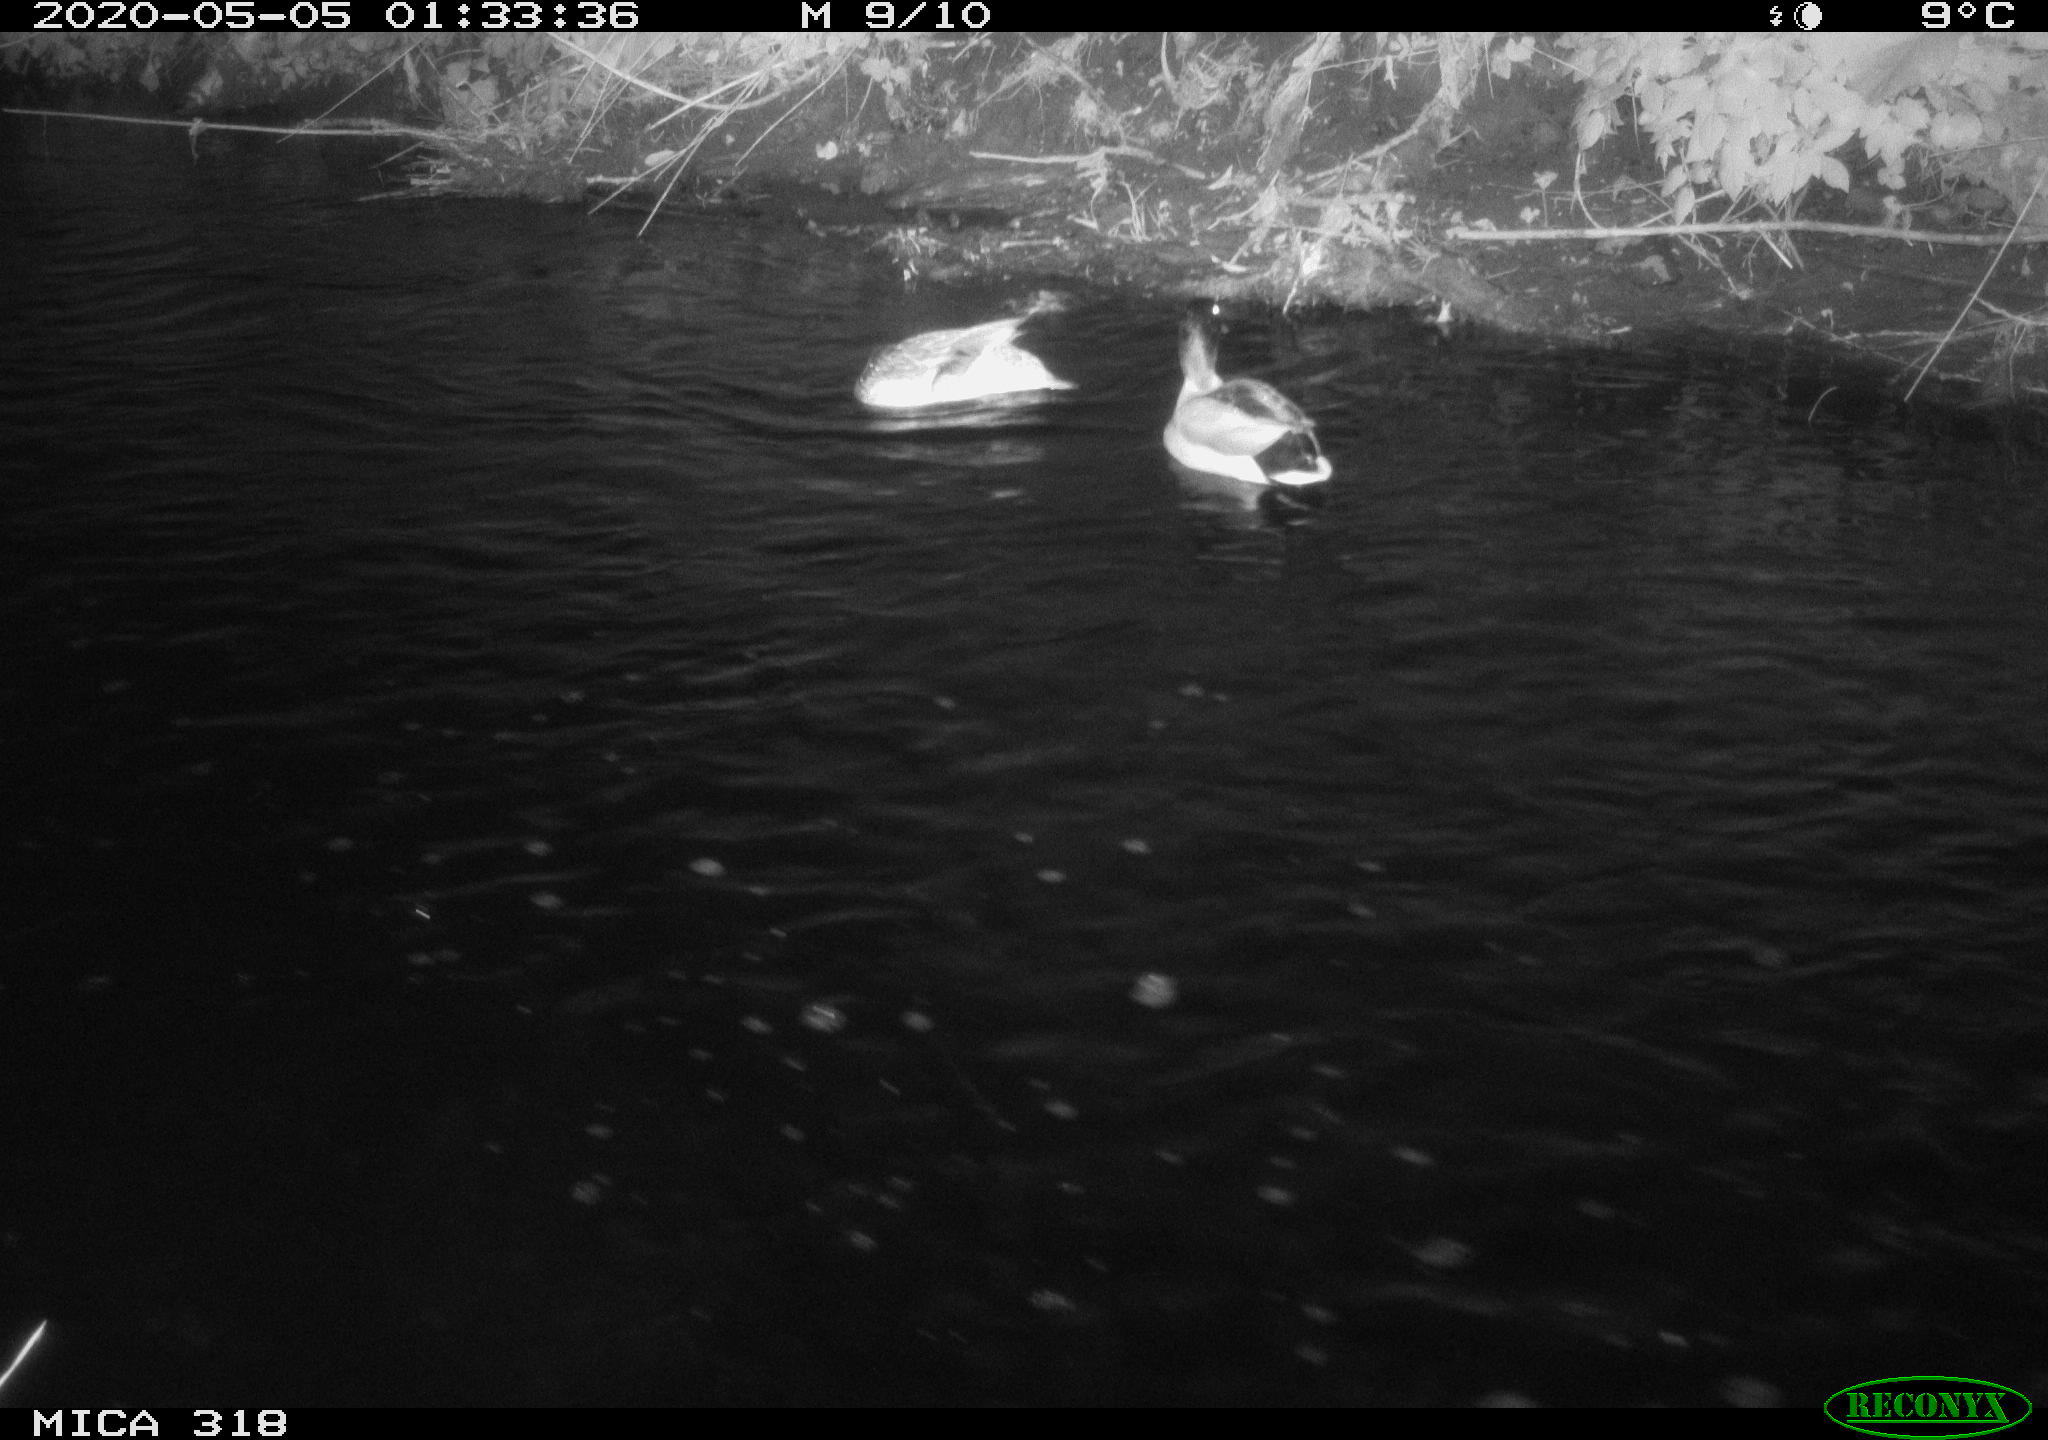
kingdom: Animalia
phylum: Chordata
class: Aves
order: Anseriformes
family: Anatidae
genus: Anas
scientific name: Anas platyrhynchos
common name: Mallard
